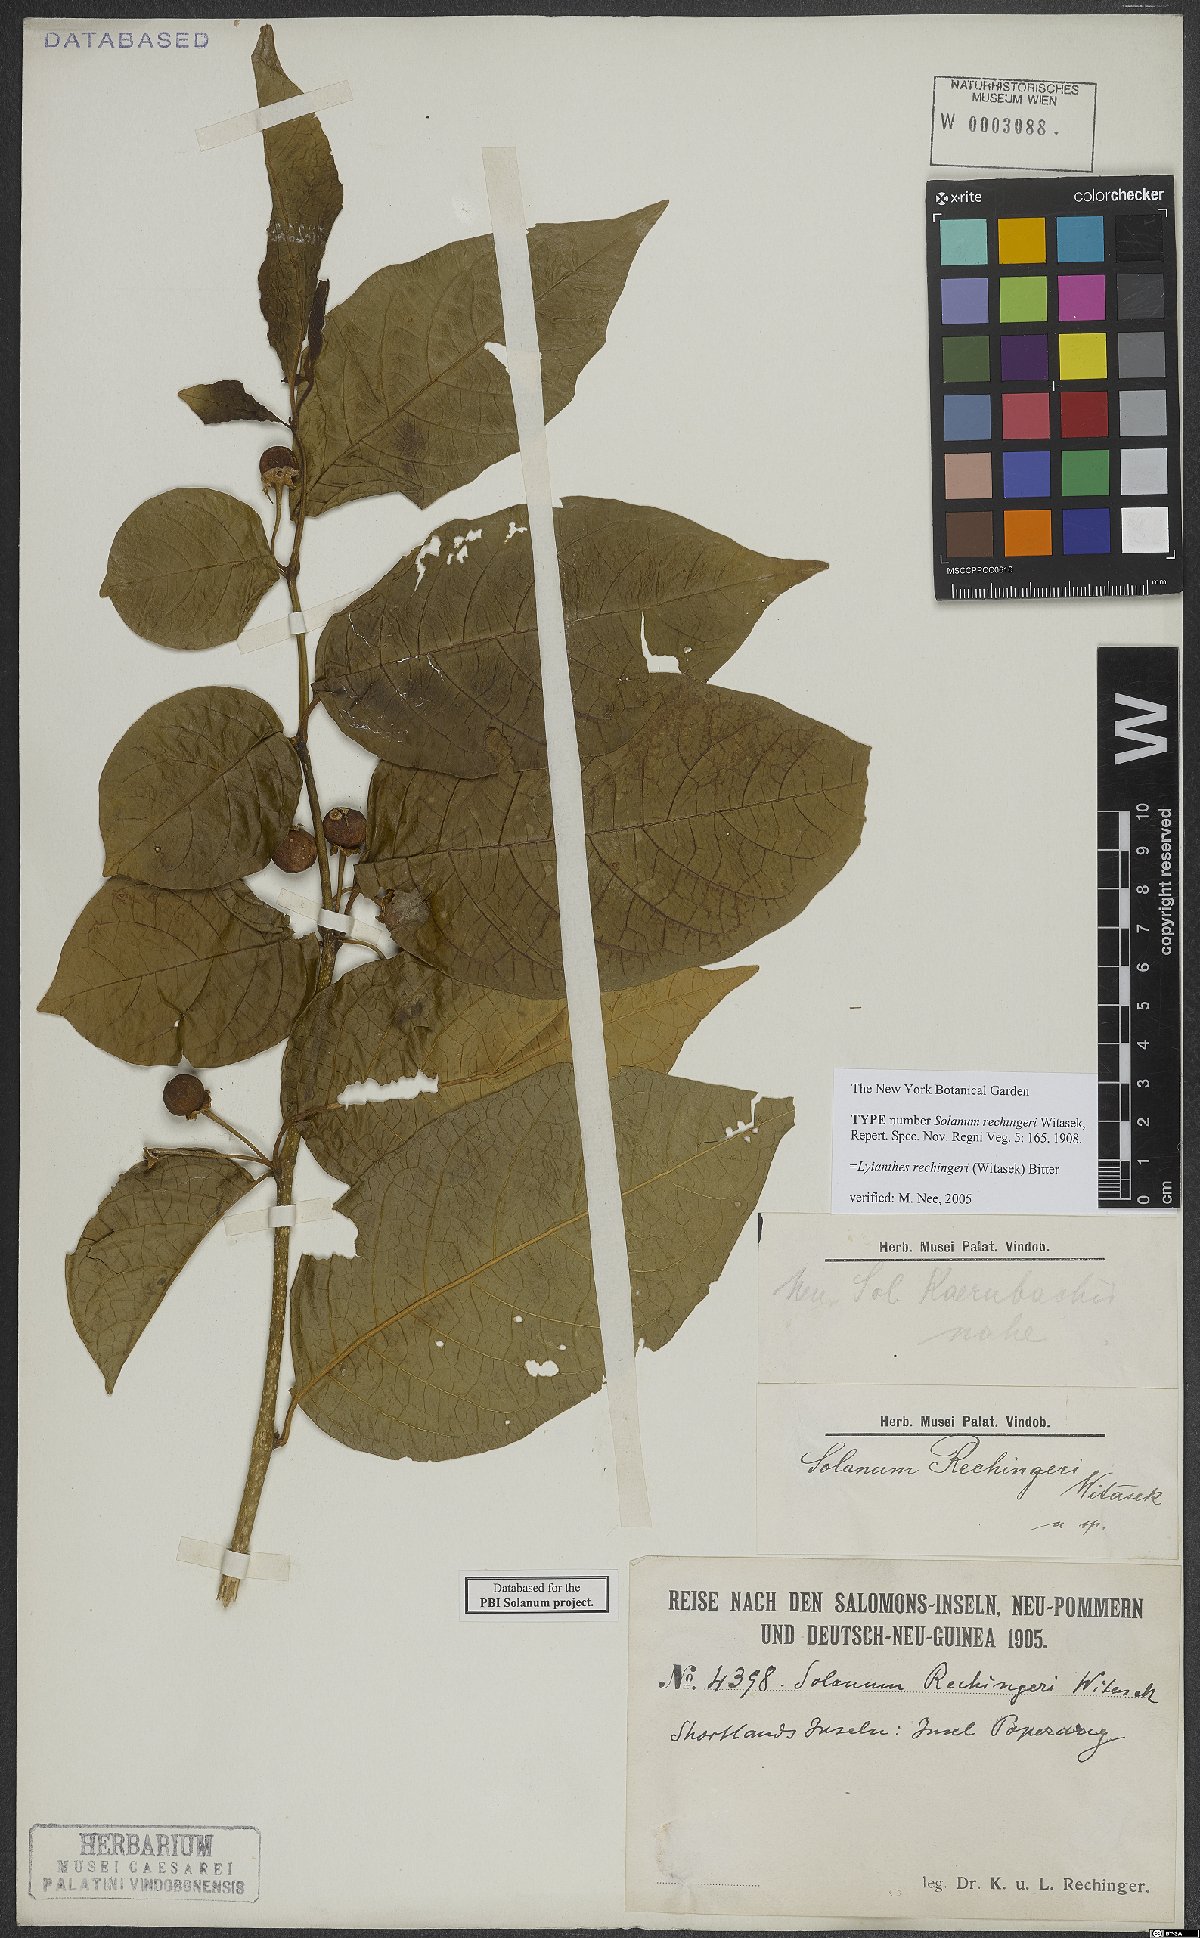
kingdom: Plantae
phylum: Tracheophyta
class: Magnoliopsida
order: Solanales
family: Solanaceae
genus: Lycianthes
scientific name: Lycianthes vitiensis
